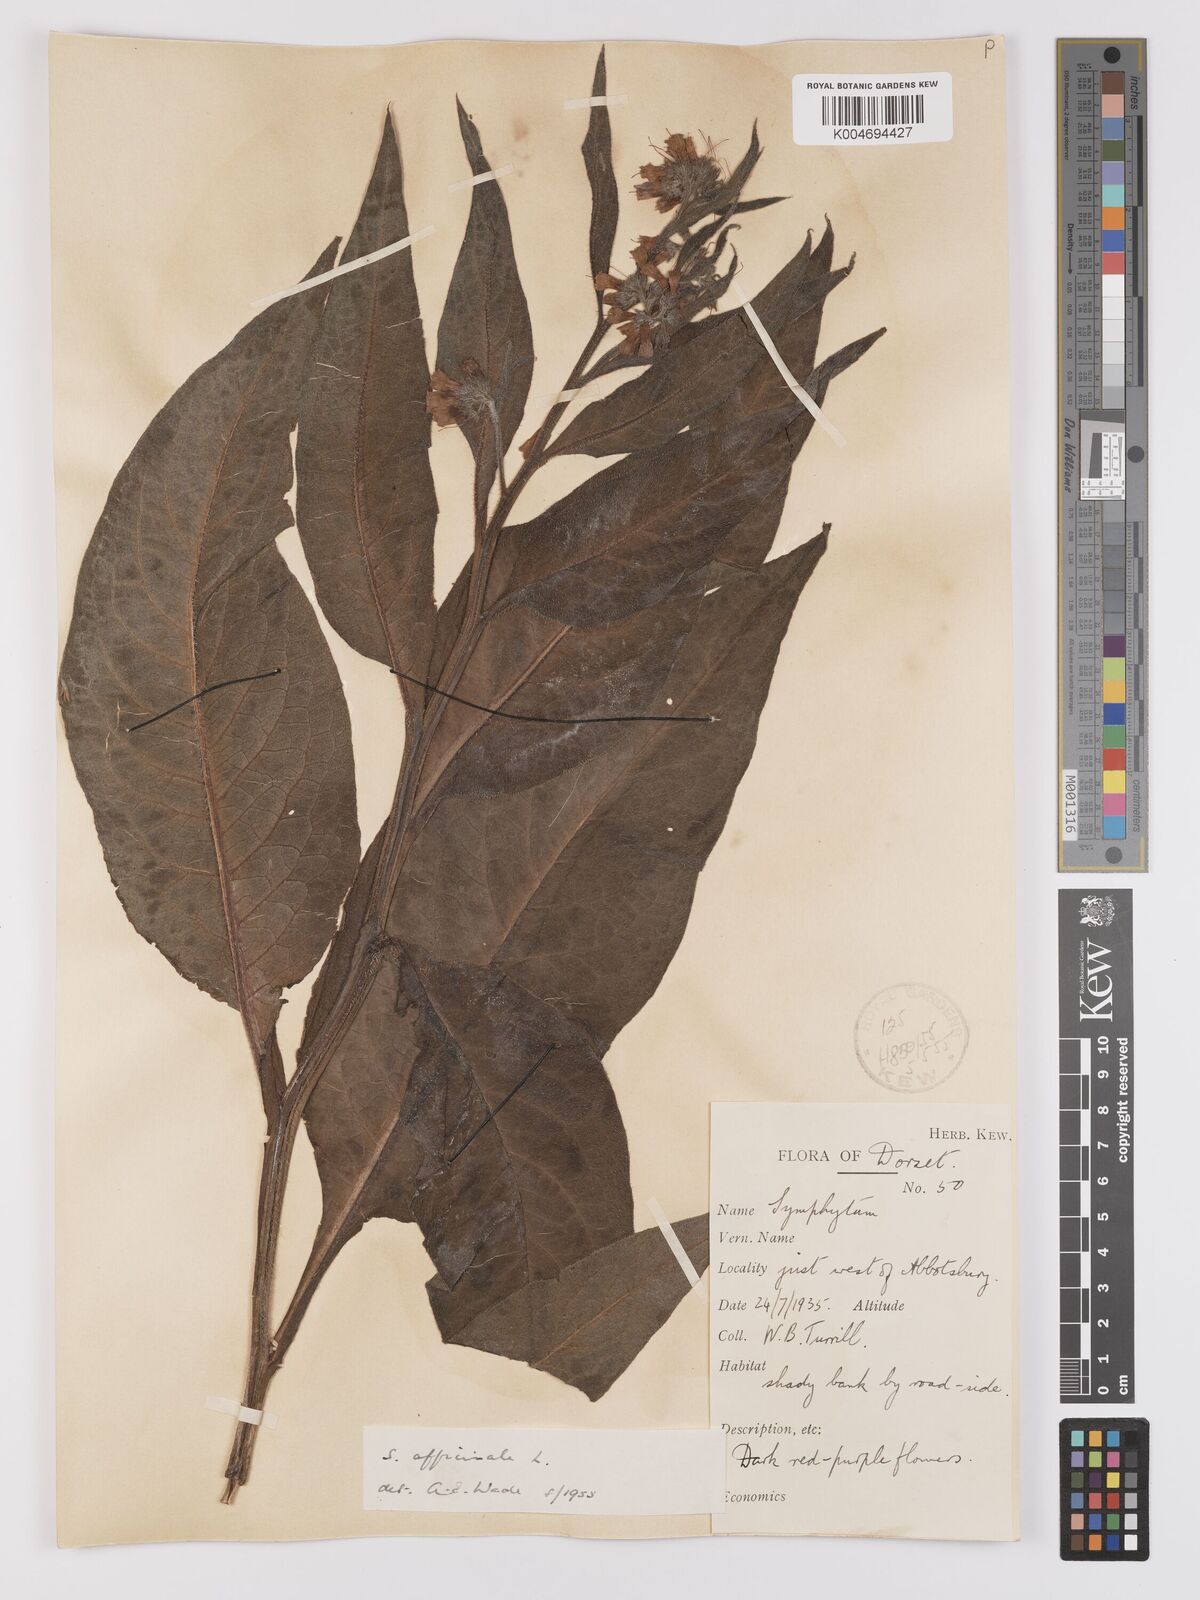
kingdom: Plantae
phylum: Tracheophyta
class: Magnoliopsida
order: Boraginales
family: Boraginaceae
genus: Symphytum
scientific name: Symphytum officinale
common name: Common comfrey
